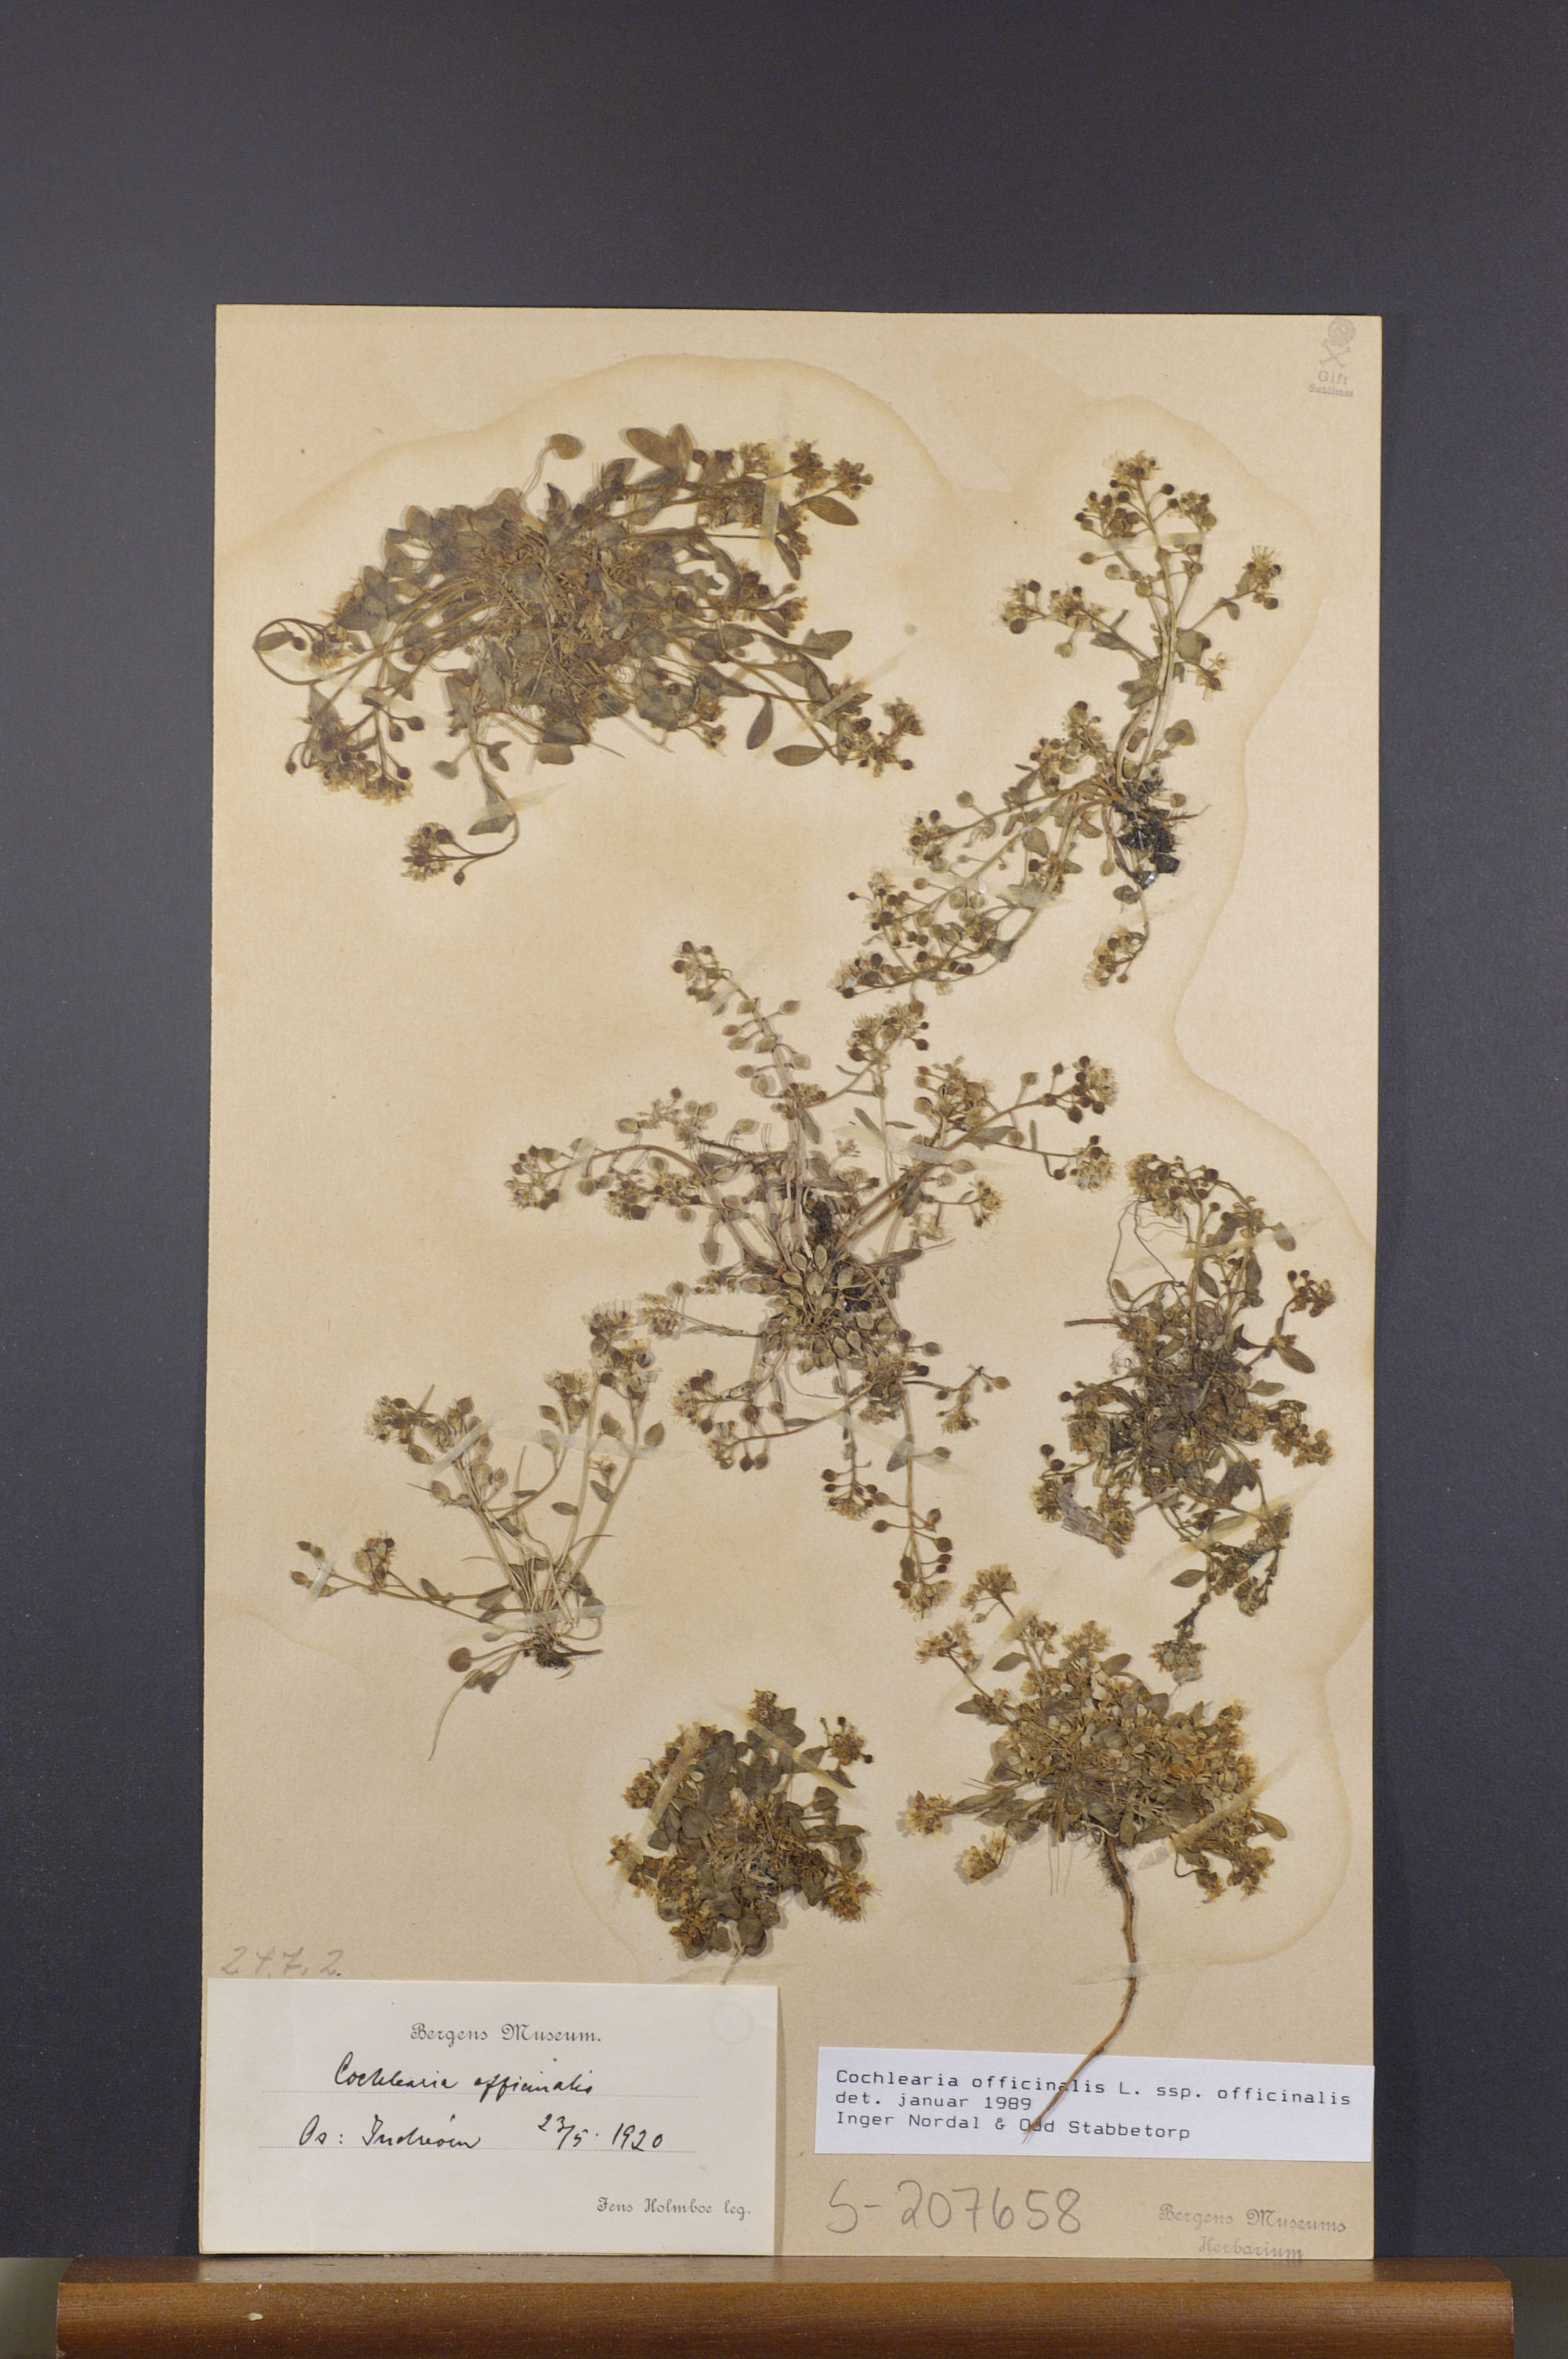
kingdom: Plantae
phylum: Tracheophyta
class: Magnoliopsida
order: Brassicales
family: Brassicaceae
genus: Cochlearia
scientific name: Cochlearia officinalis
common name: Scurvy-grass
